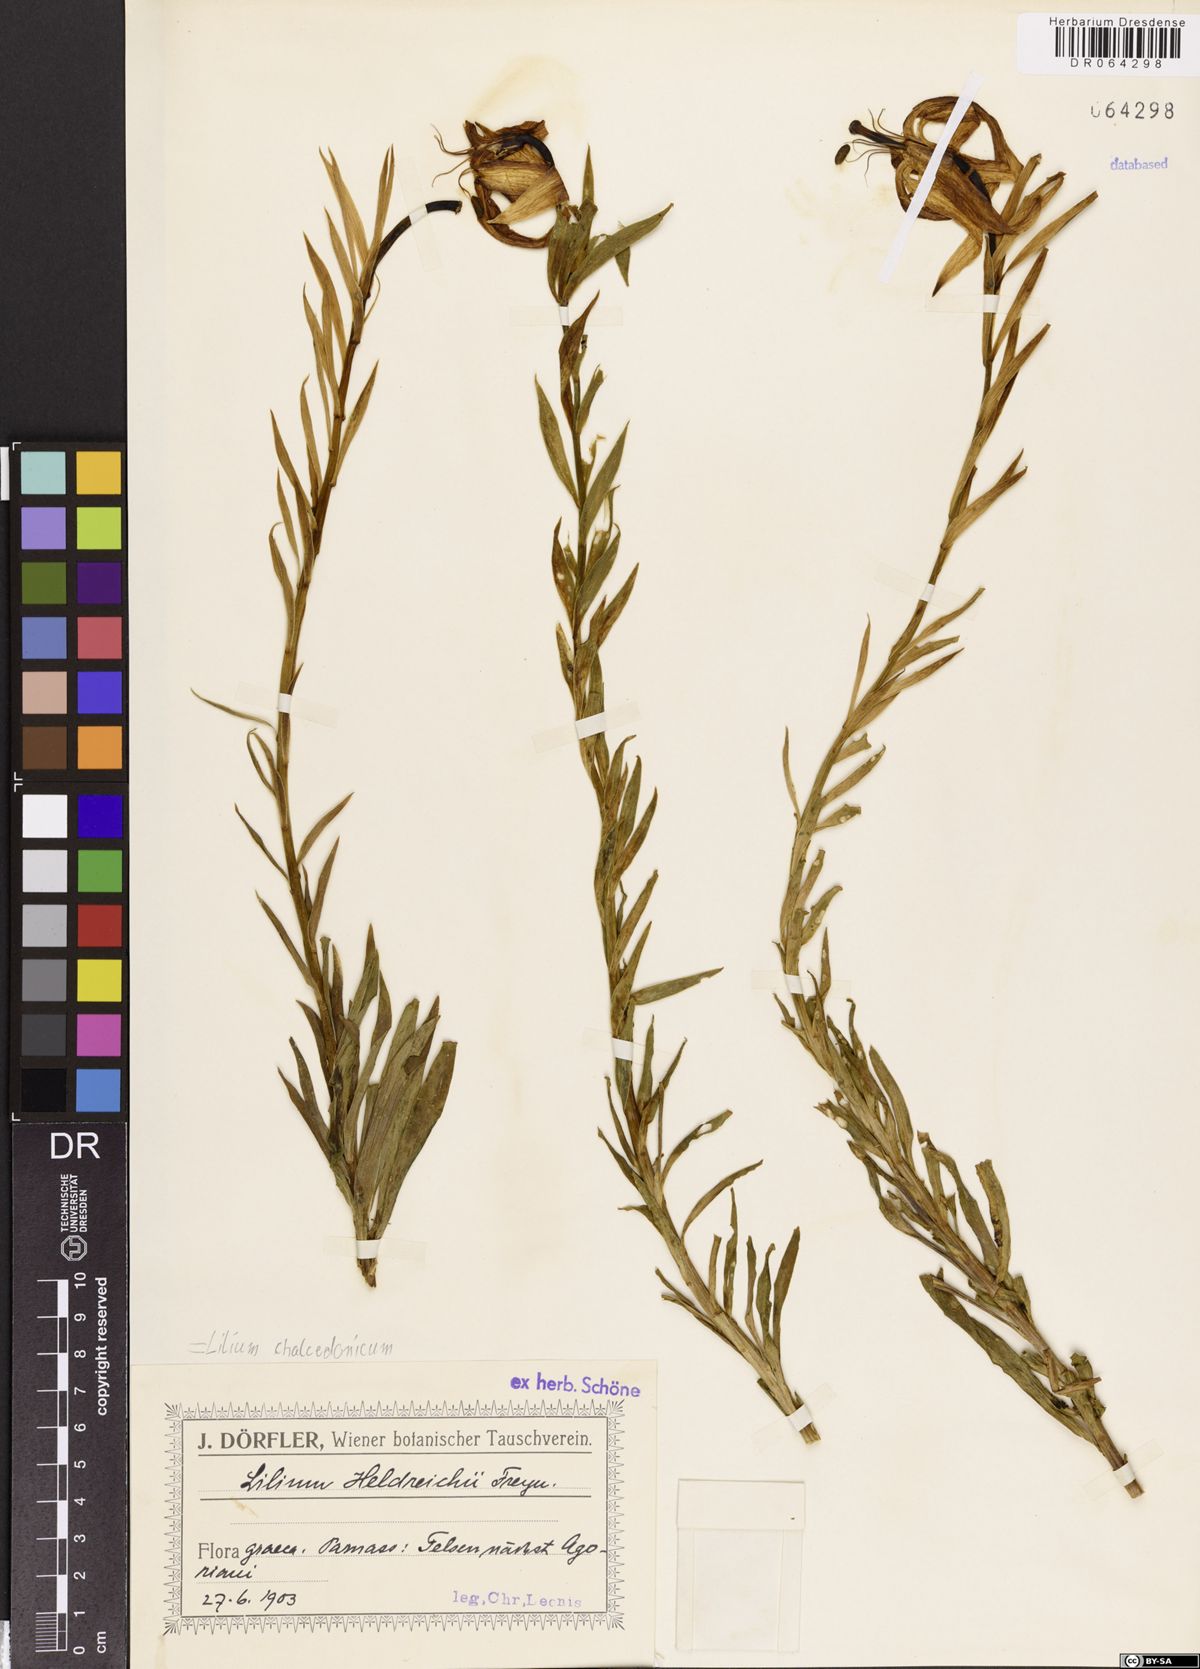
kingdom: Plantae
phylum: Tracheophyta
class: Liliopsida
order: Liliales
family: Liliaceae
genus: Lilium
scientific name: Lilium chalcedonicum
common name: Red martagon of constantinople
